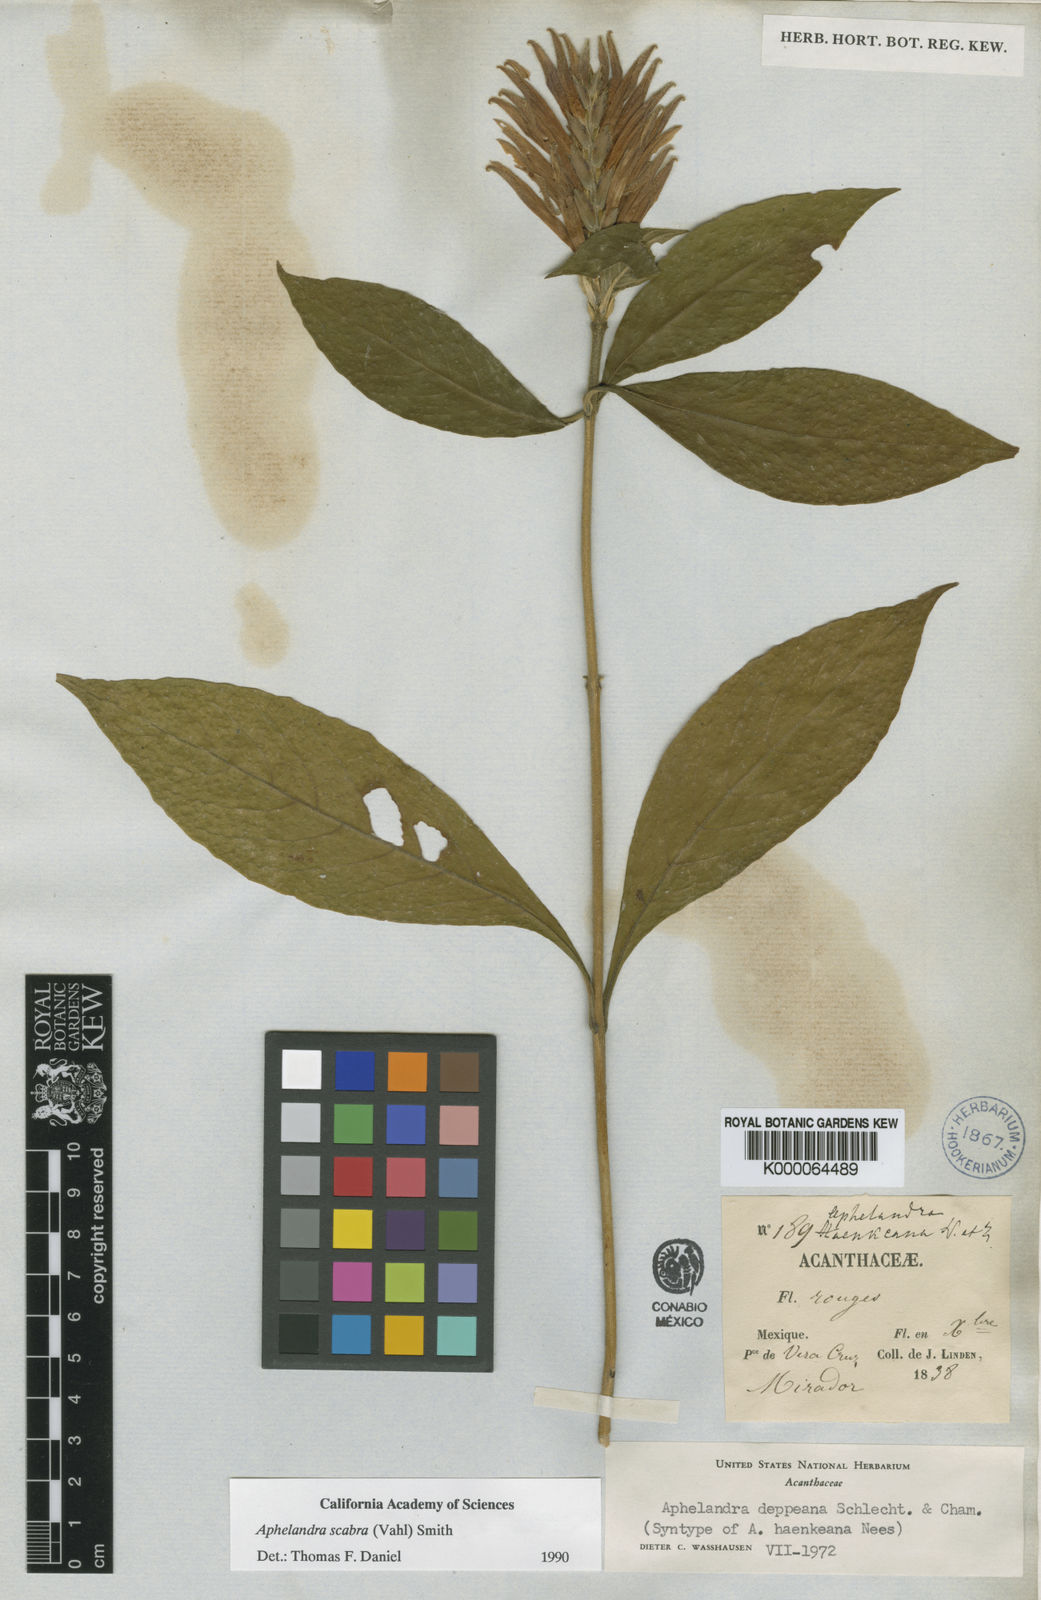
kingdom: Plantae
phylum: Tracheophyta
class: Magnoliopsida
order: Lamiales
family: Acanthaceae
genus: Aphelandra
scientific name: Aphelandra scabra
